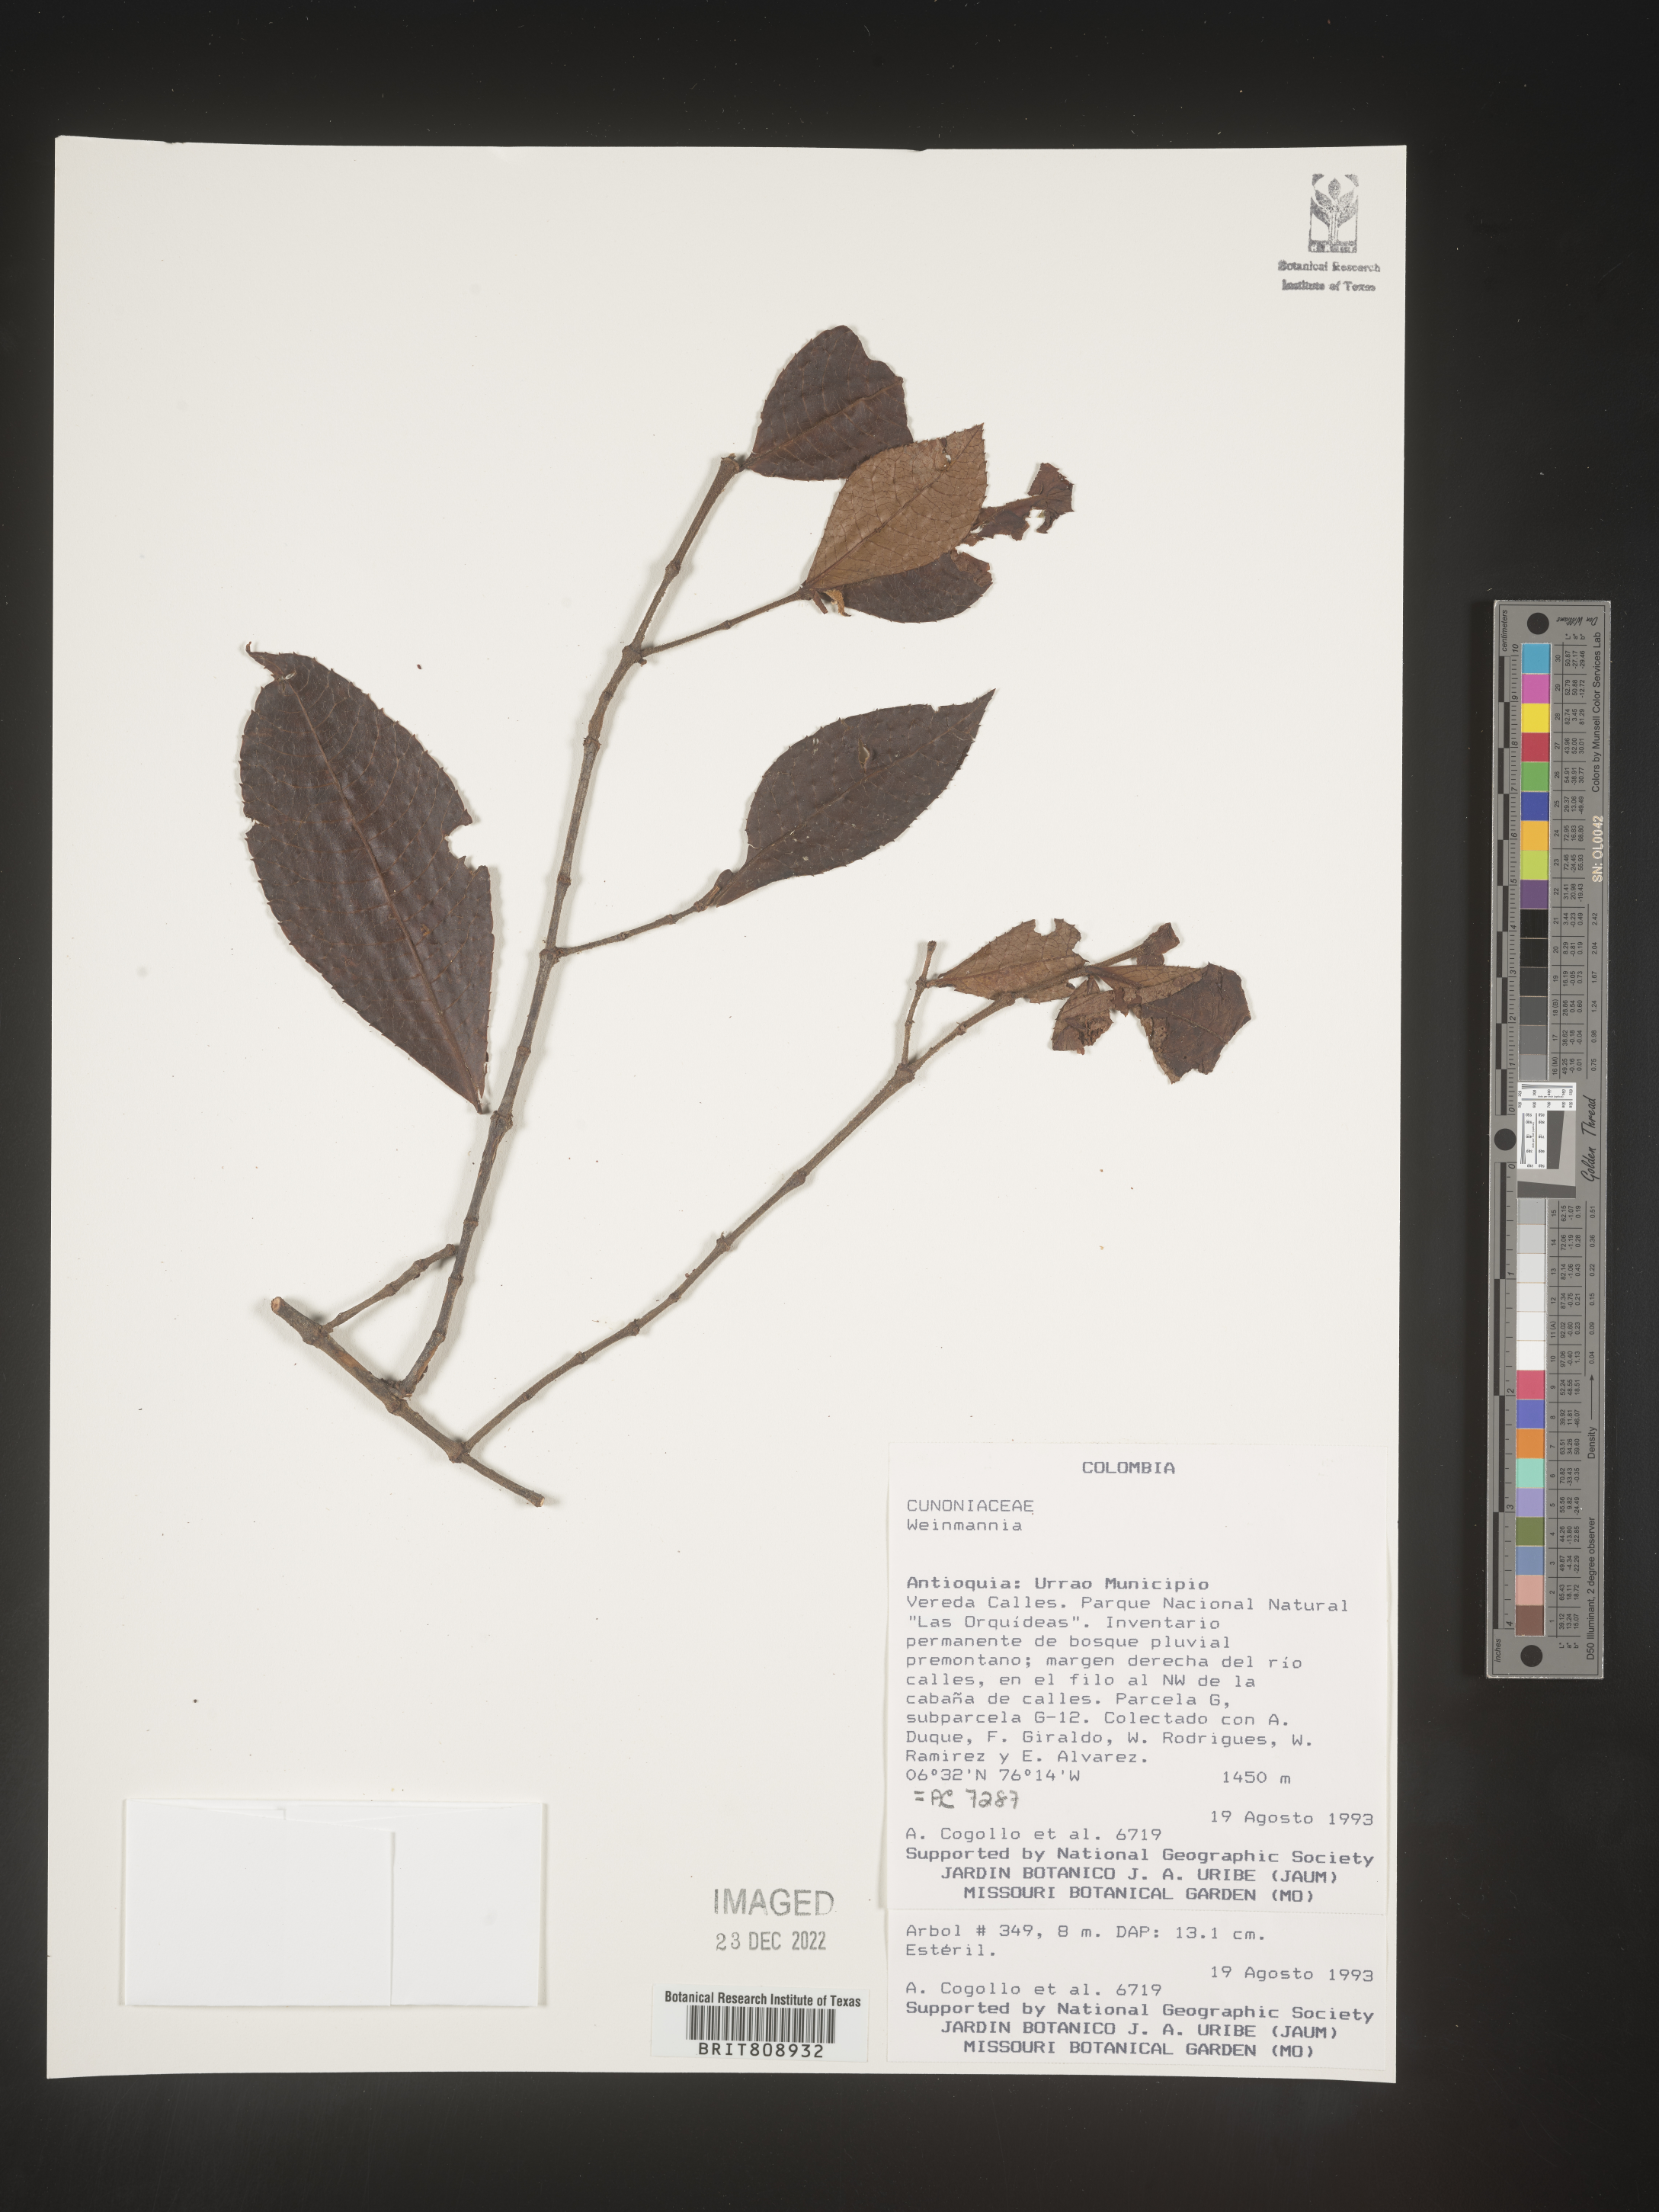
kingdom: Plantae
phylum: Tracheophyta
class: Magnoliopsida
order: Oxalidales
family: Cunoniaceae
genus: Weinmannia
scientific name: Weinmannia
